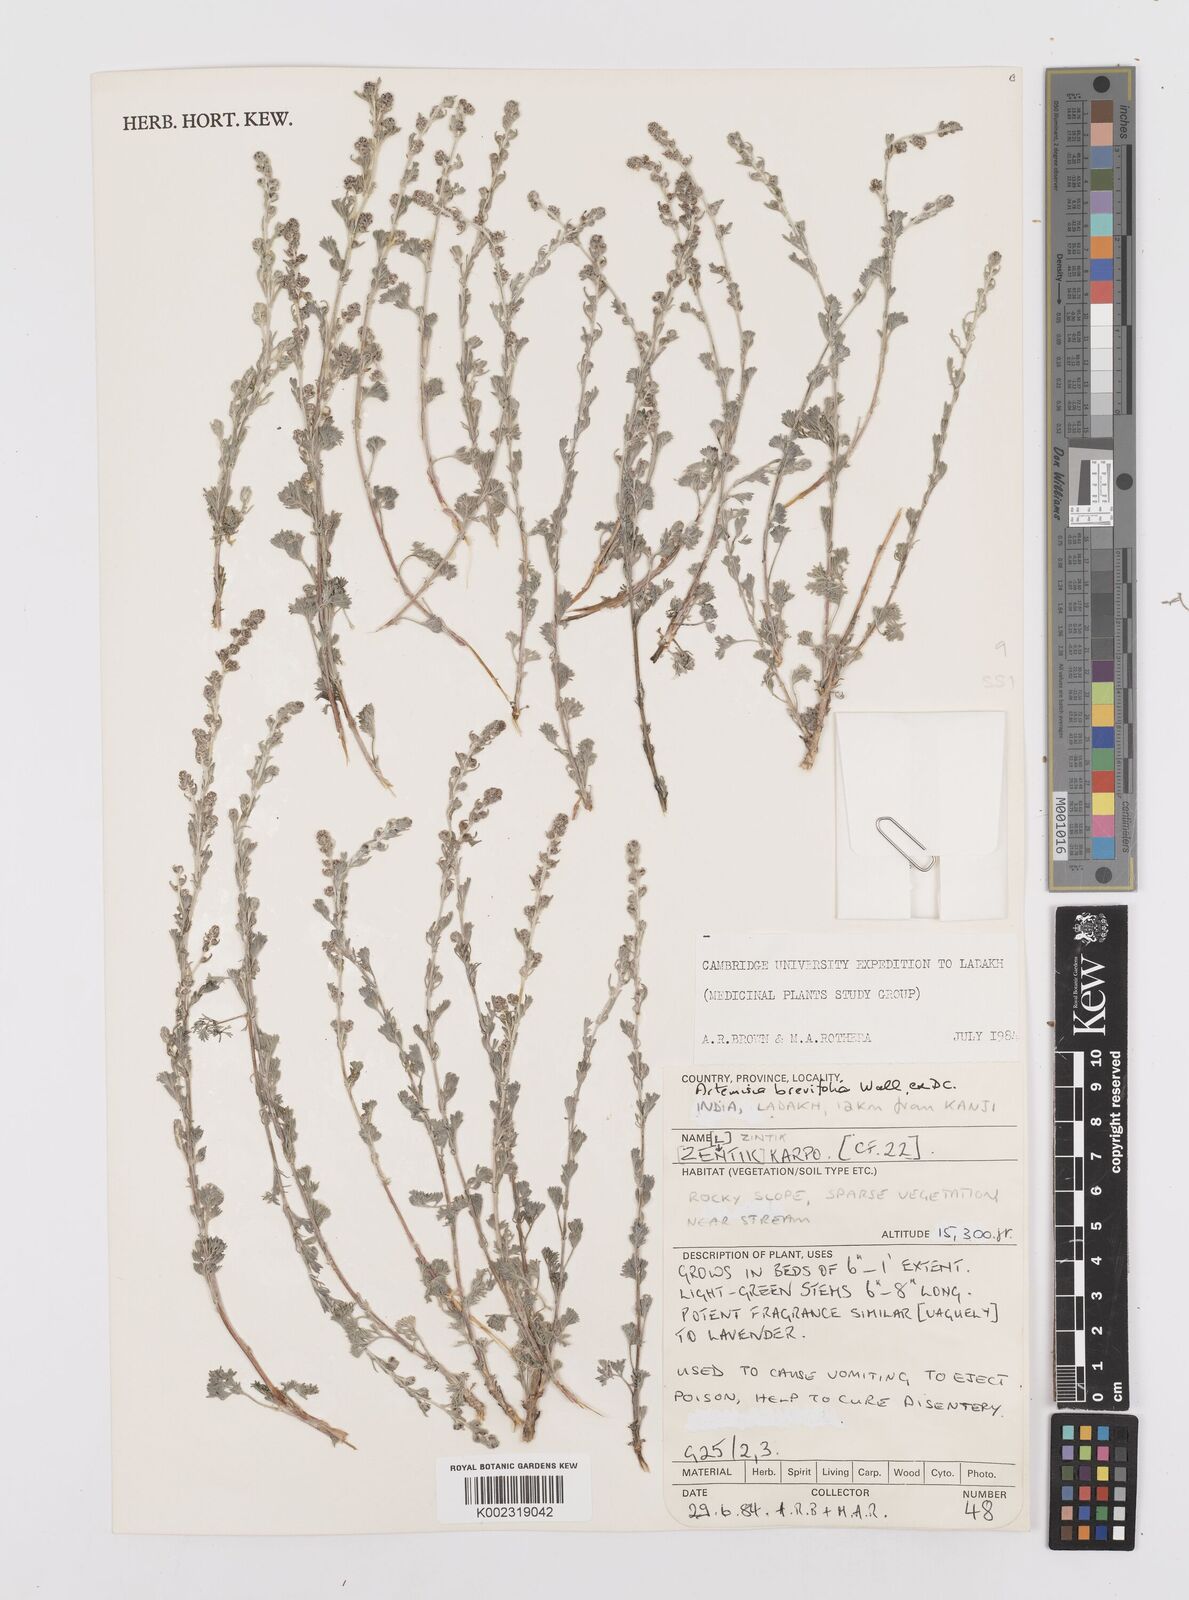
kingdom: Plantae
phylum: Tracheophyta
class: Magnoliopsida
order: Asterales
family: Asteraceae
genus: Artemisia
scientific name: Artemisia brevifolia
